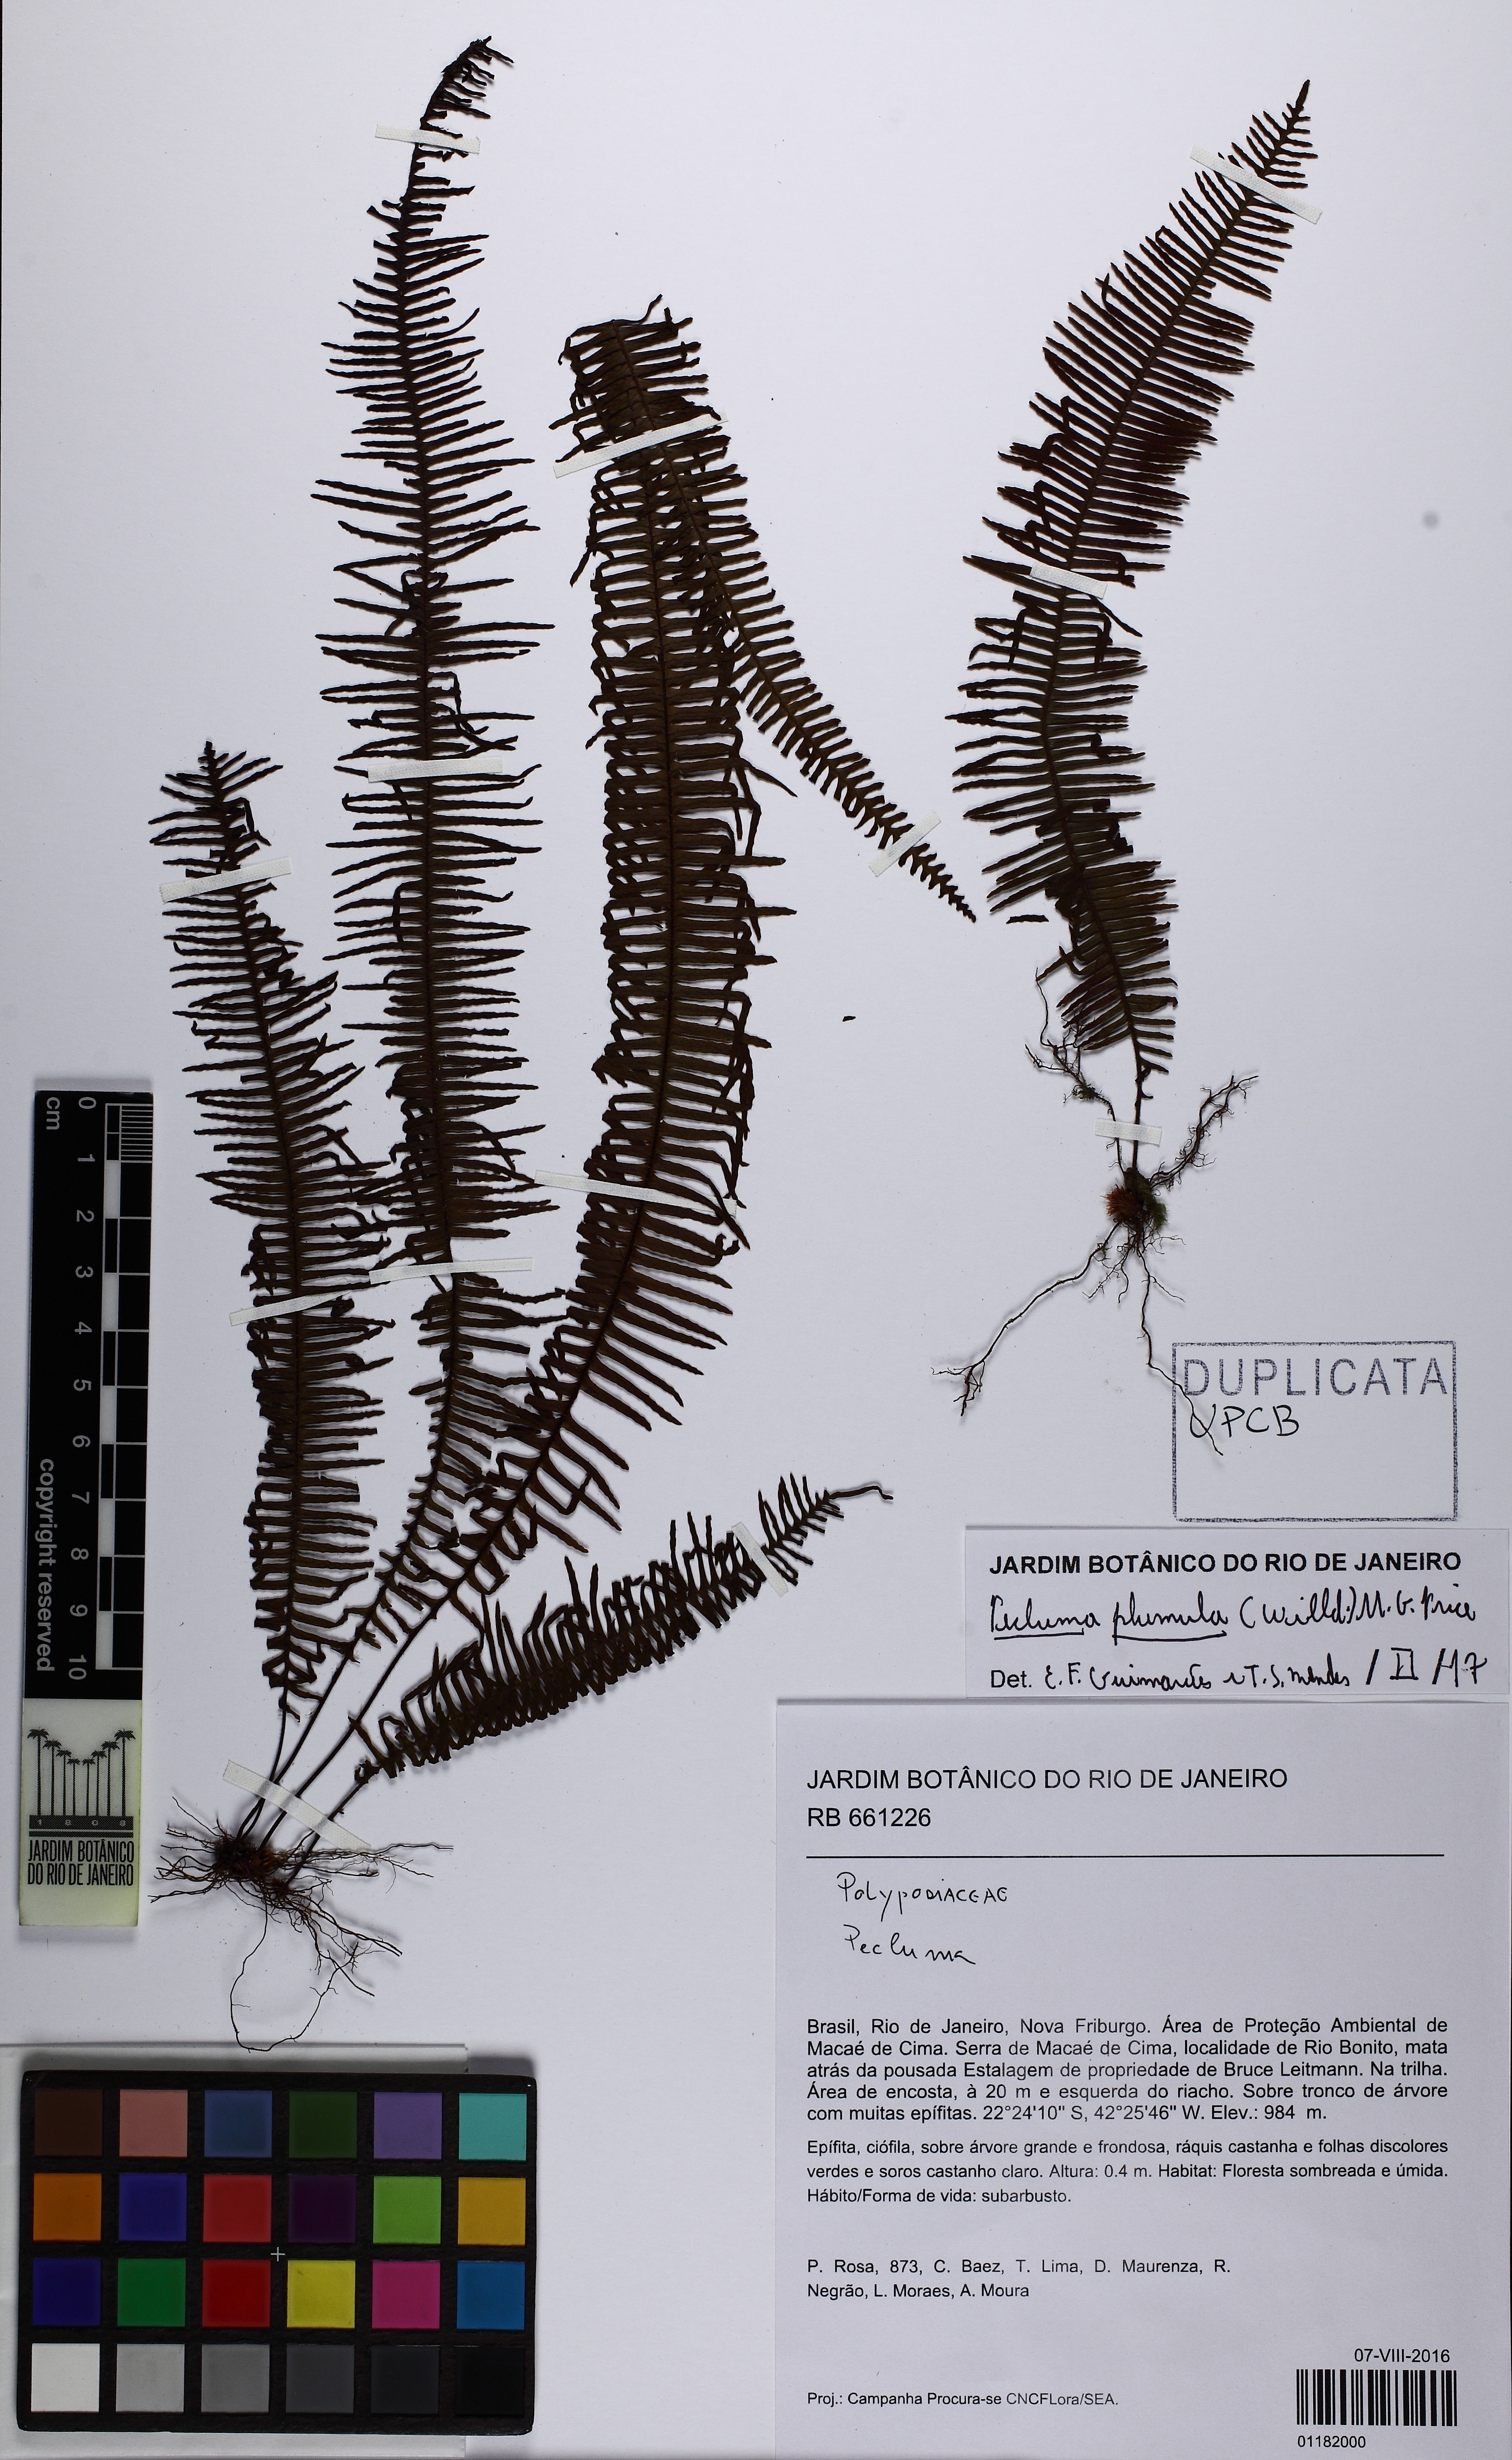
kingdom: Plantae
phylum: Tracheophyta
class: Polypodiopsida
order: Polypodiales
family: Polypodiaceae
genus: Pecluma
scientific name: Pecluma plumula
